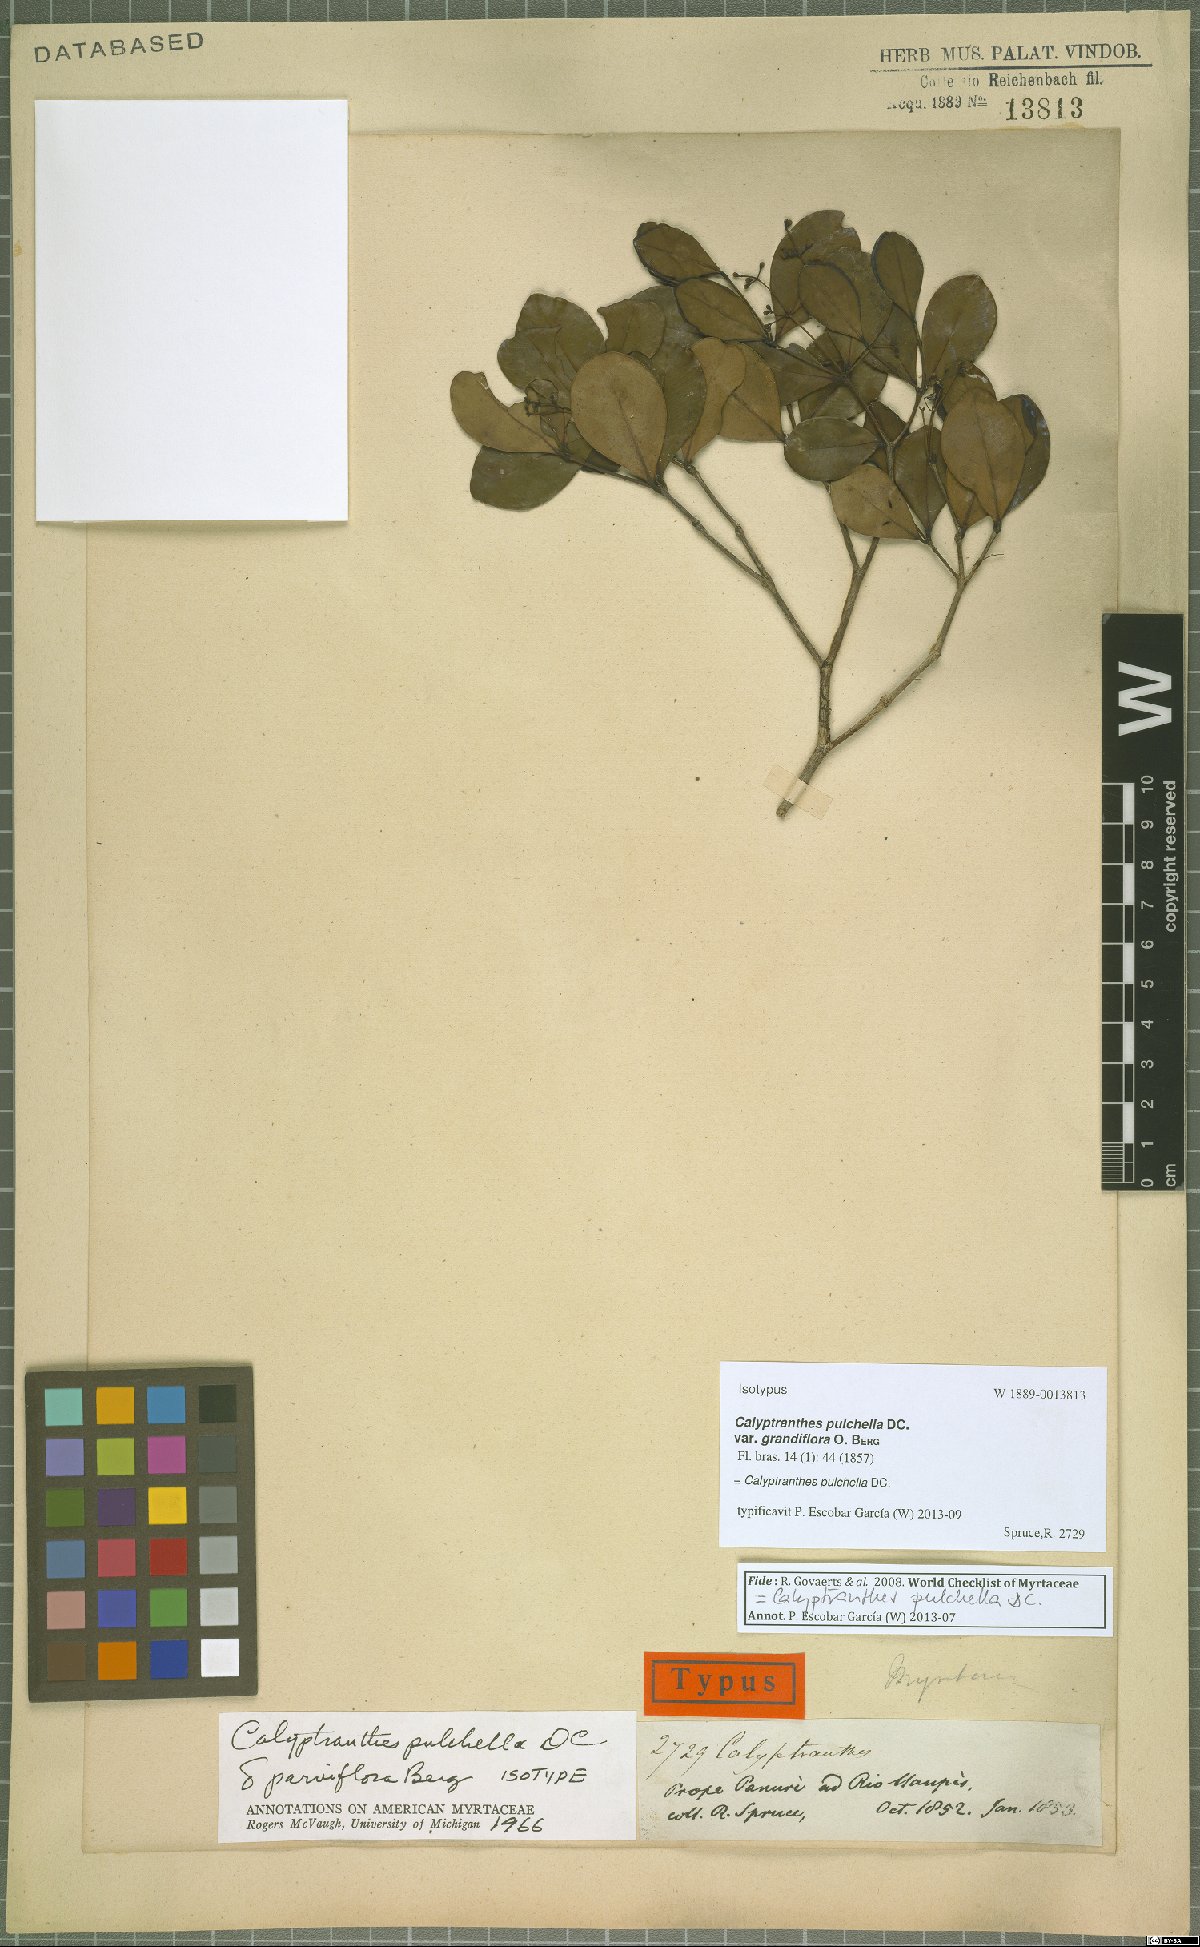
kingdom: Plantae
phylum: Tracheophyta
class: Magnoliopsida
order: Myrtales
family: Myrtaceae
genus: Myrcia
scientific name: Myrcia pulchella
